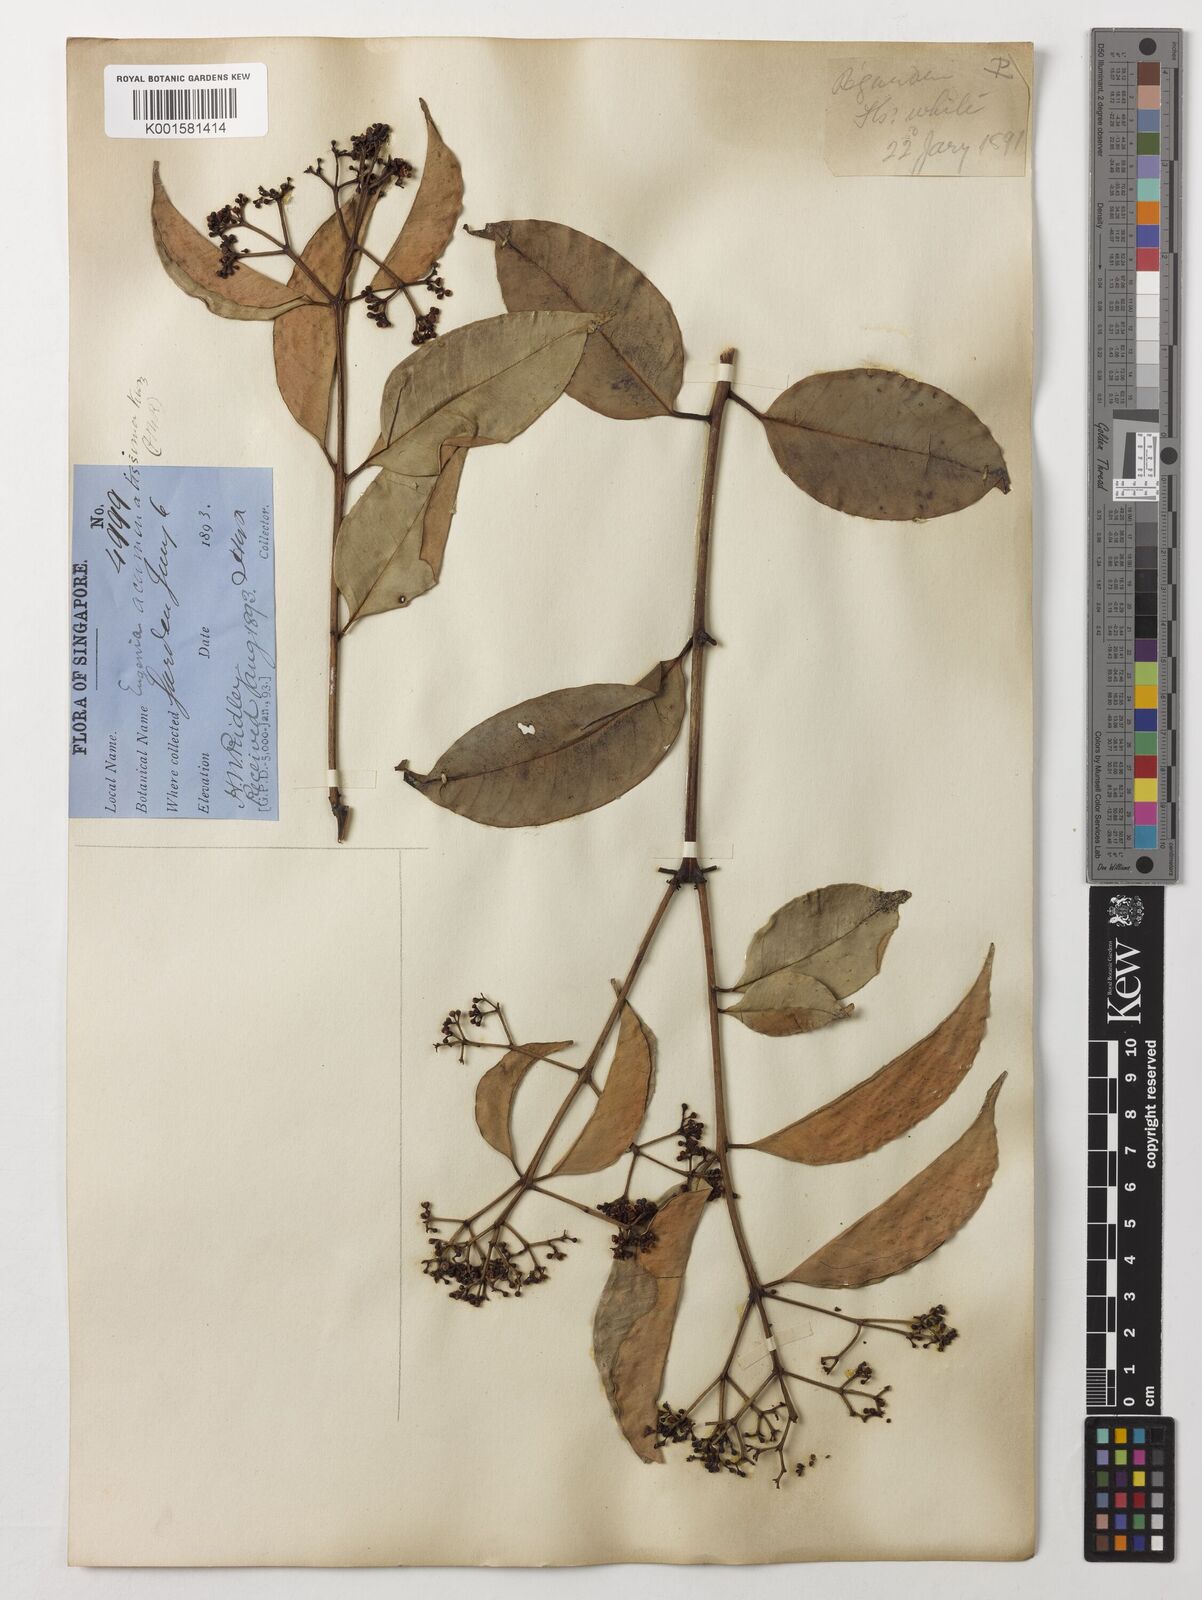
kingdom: Plantae
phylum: Tracheophyta
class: Magnoliopsida
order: Myrtales
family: Myrtaceae
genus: Eugenia
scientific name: Eugenia biflora
